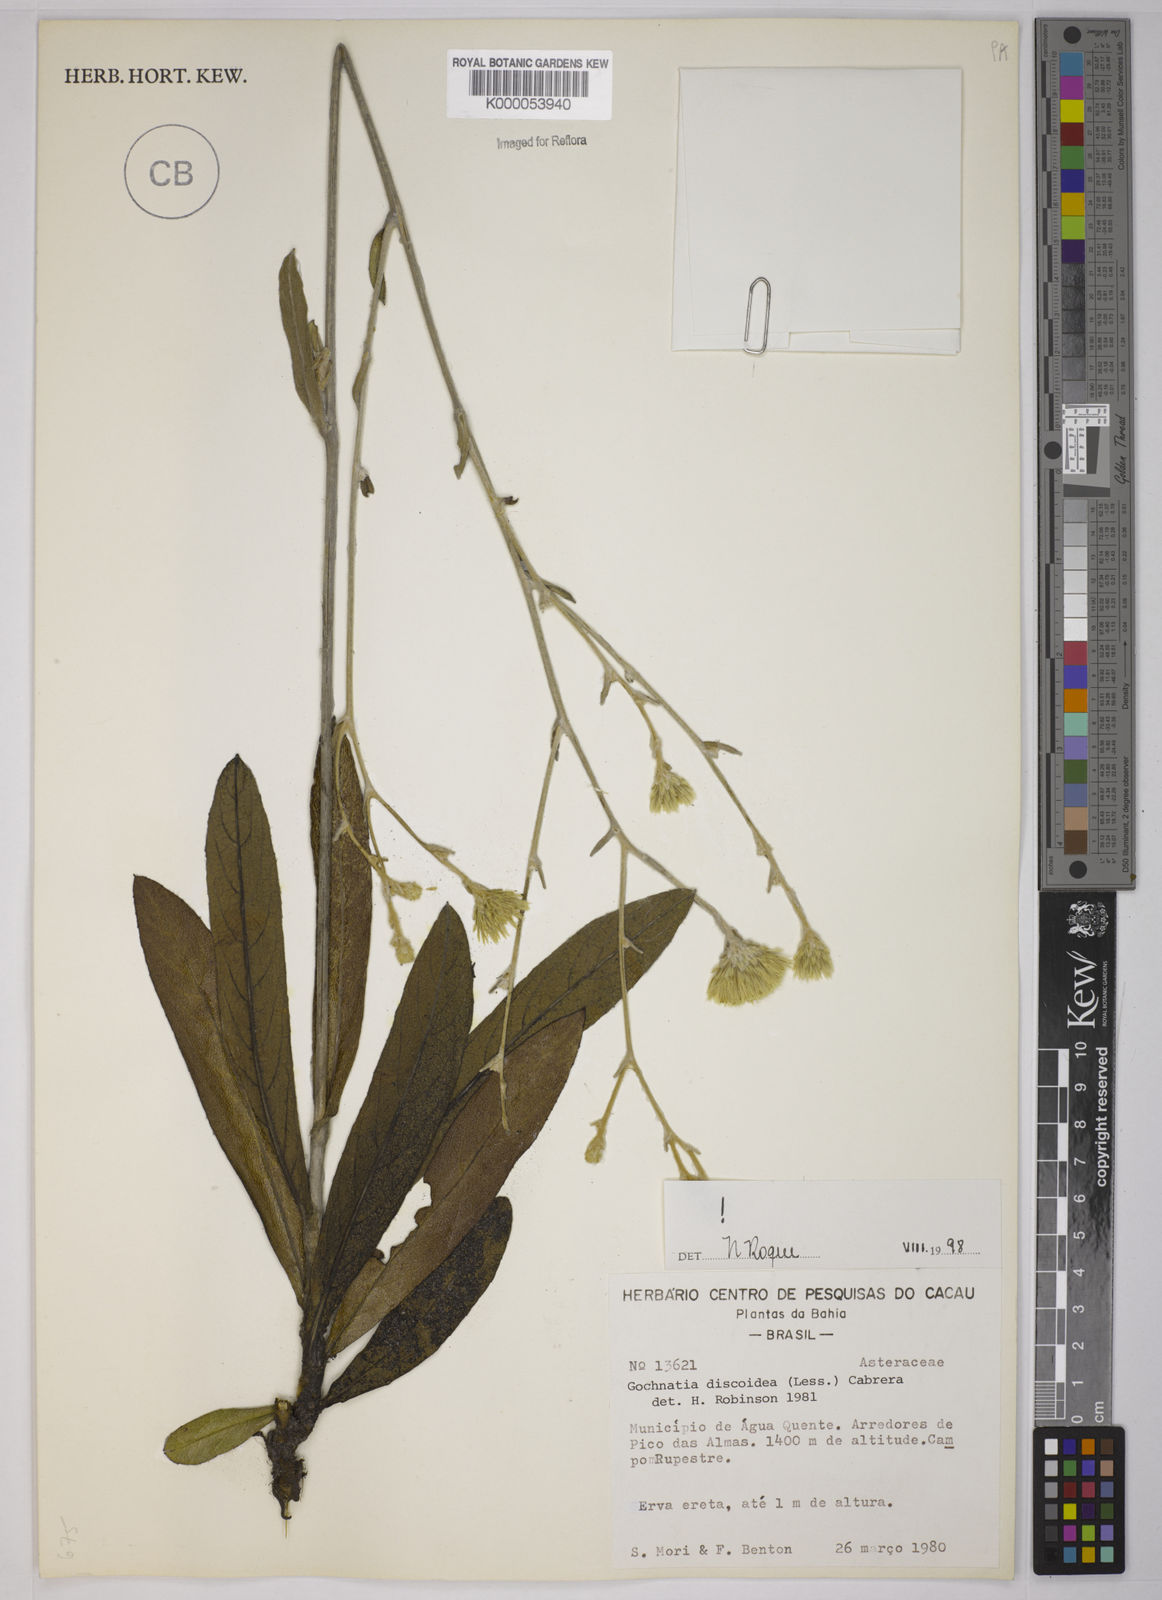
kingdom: Plantae
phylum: Tracheophyta
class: Magnoliopsida
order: Asterales
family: Asteraceae
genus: Richterago
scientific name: Richterago discoidea
